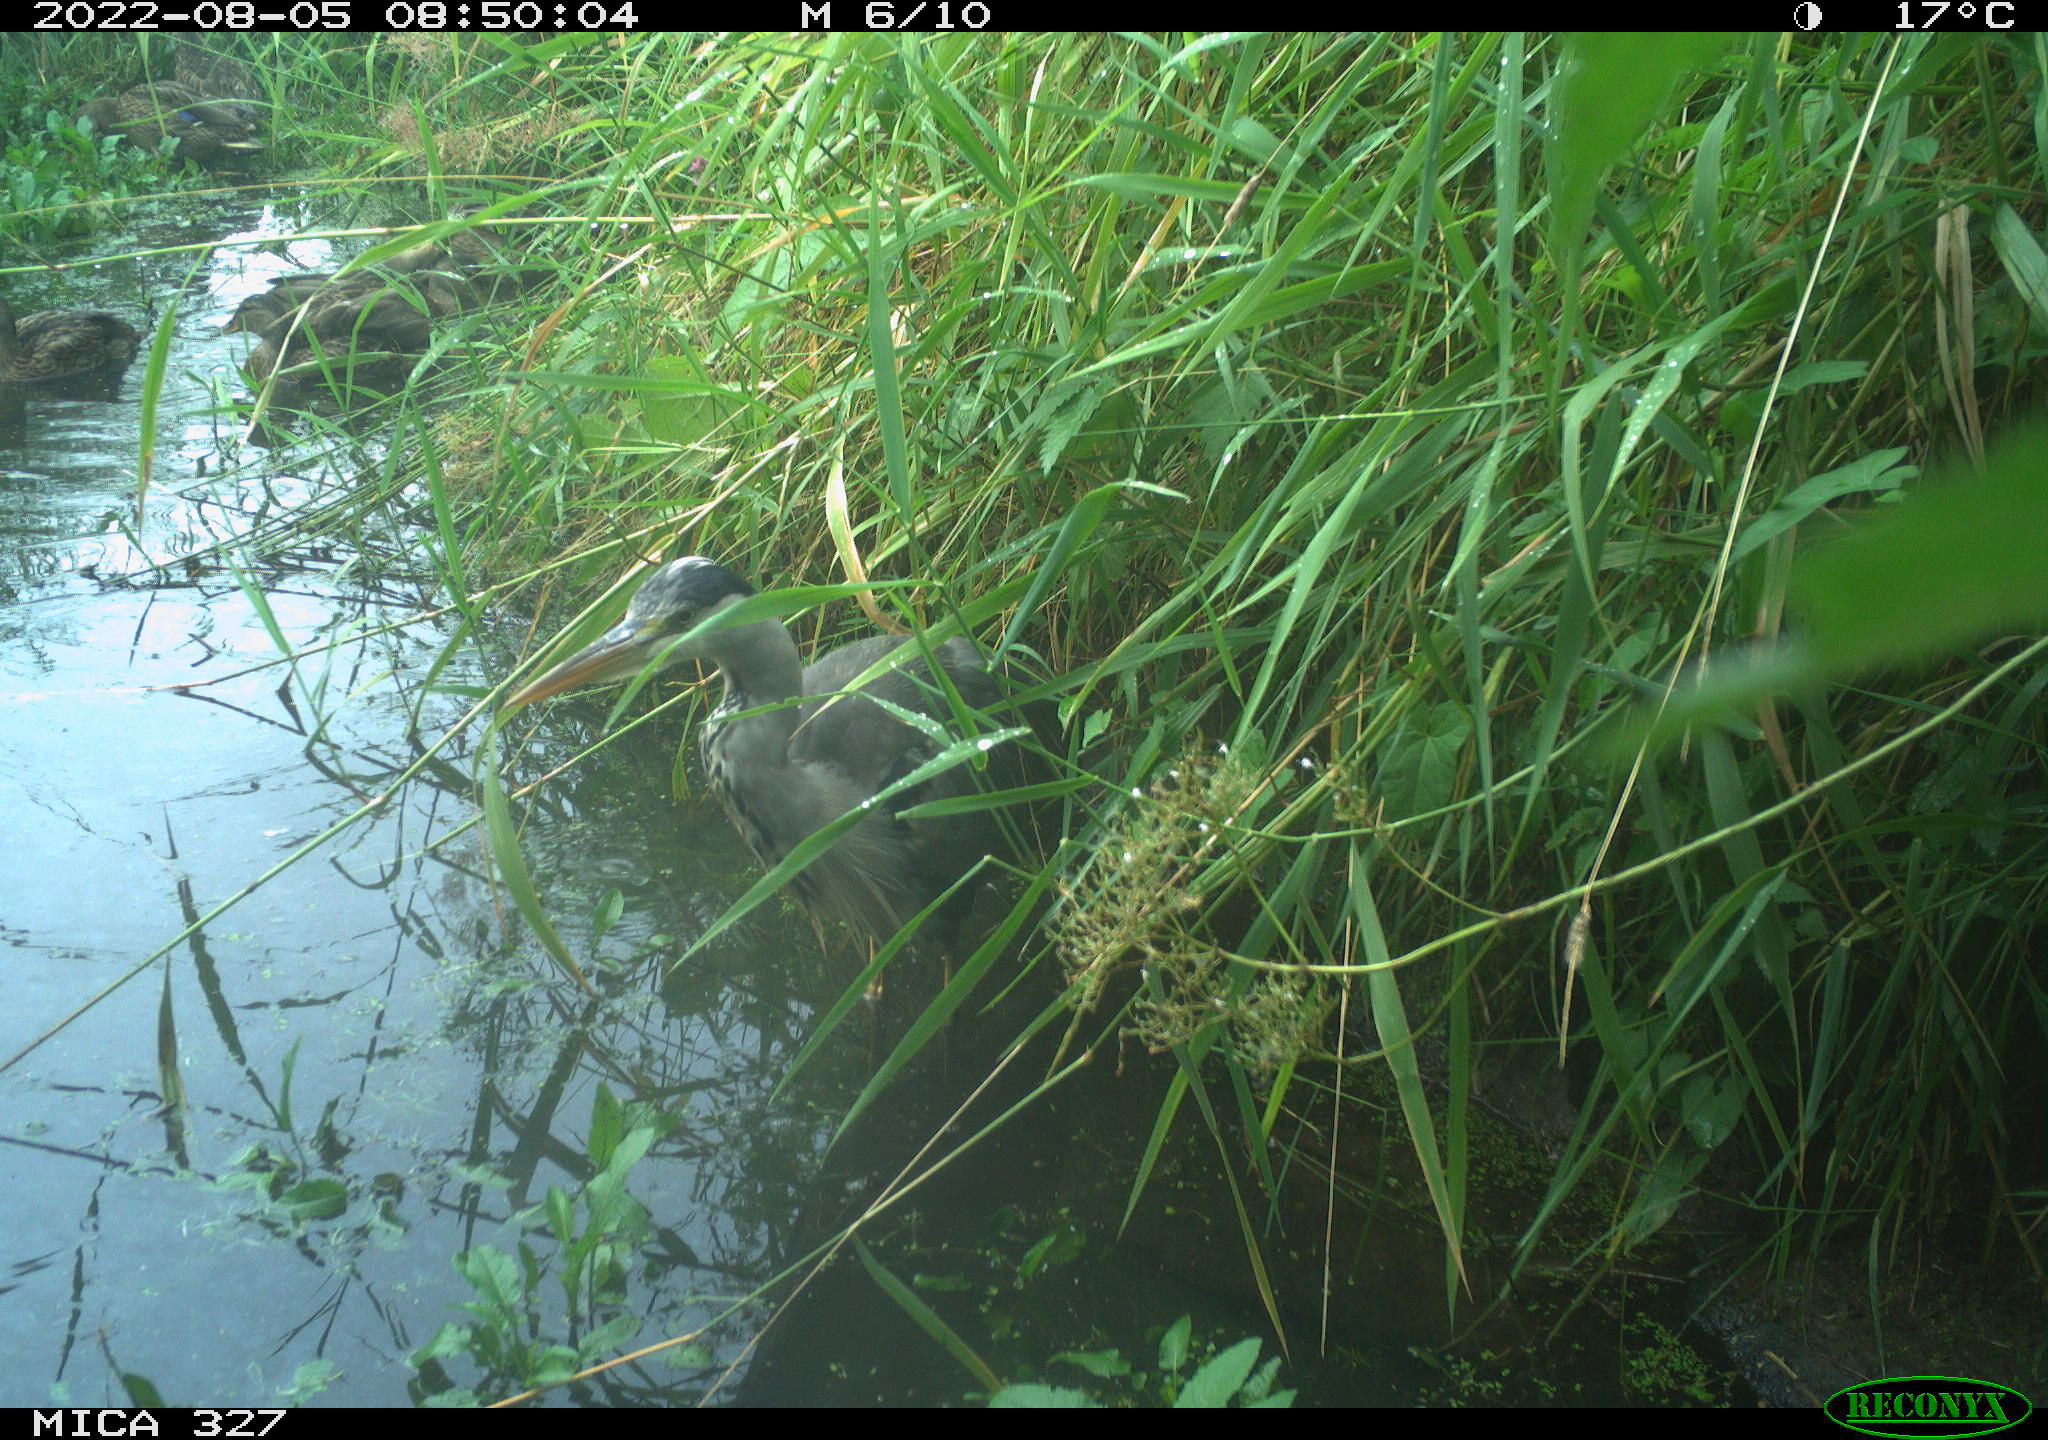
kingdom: Animalia
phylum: Chordata
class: Aves
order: Anseriformes
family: Anatidae
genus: Anas
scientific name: Anas
